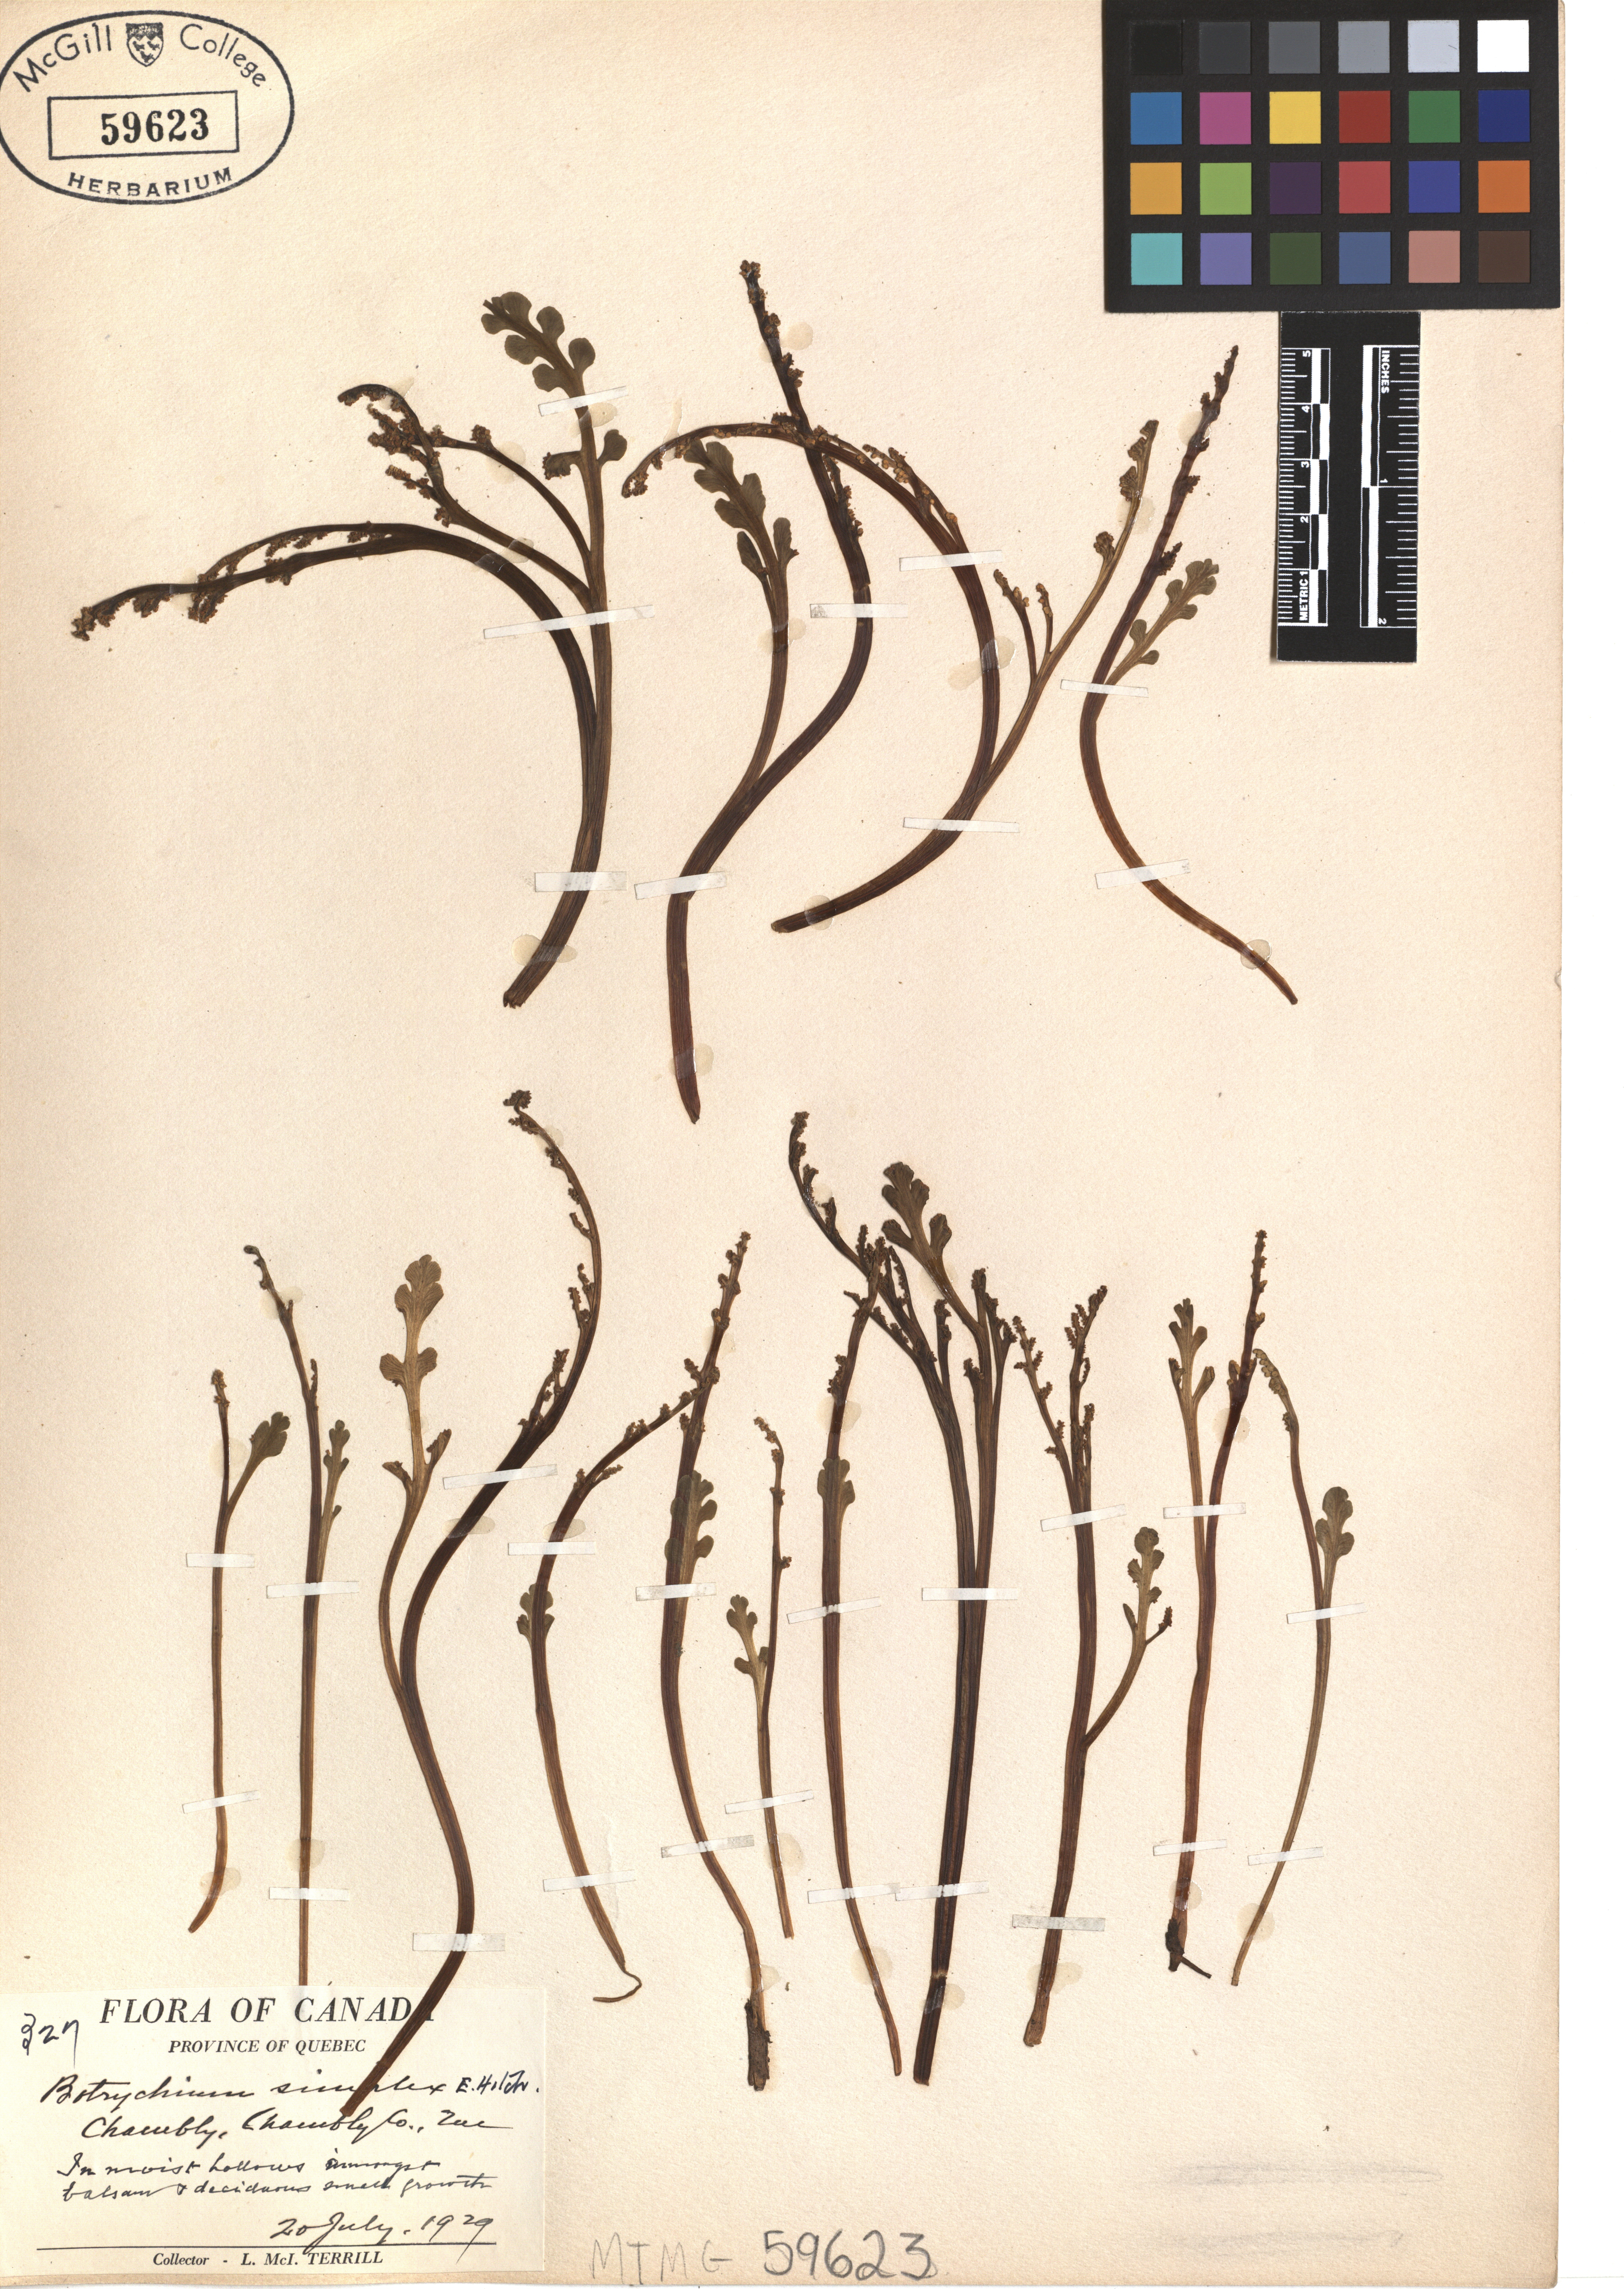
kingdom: Plantae
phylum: Tracheophyta
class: Polypodiopsida
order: Ophioglossales
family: Ophioglossaceae
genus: Botrychium
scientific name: Botrychium simplex
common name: Least moonwort
